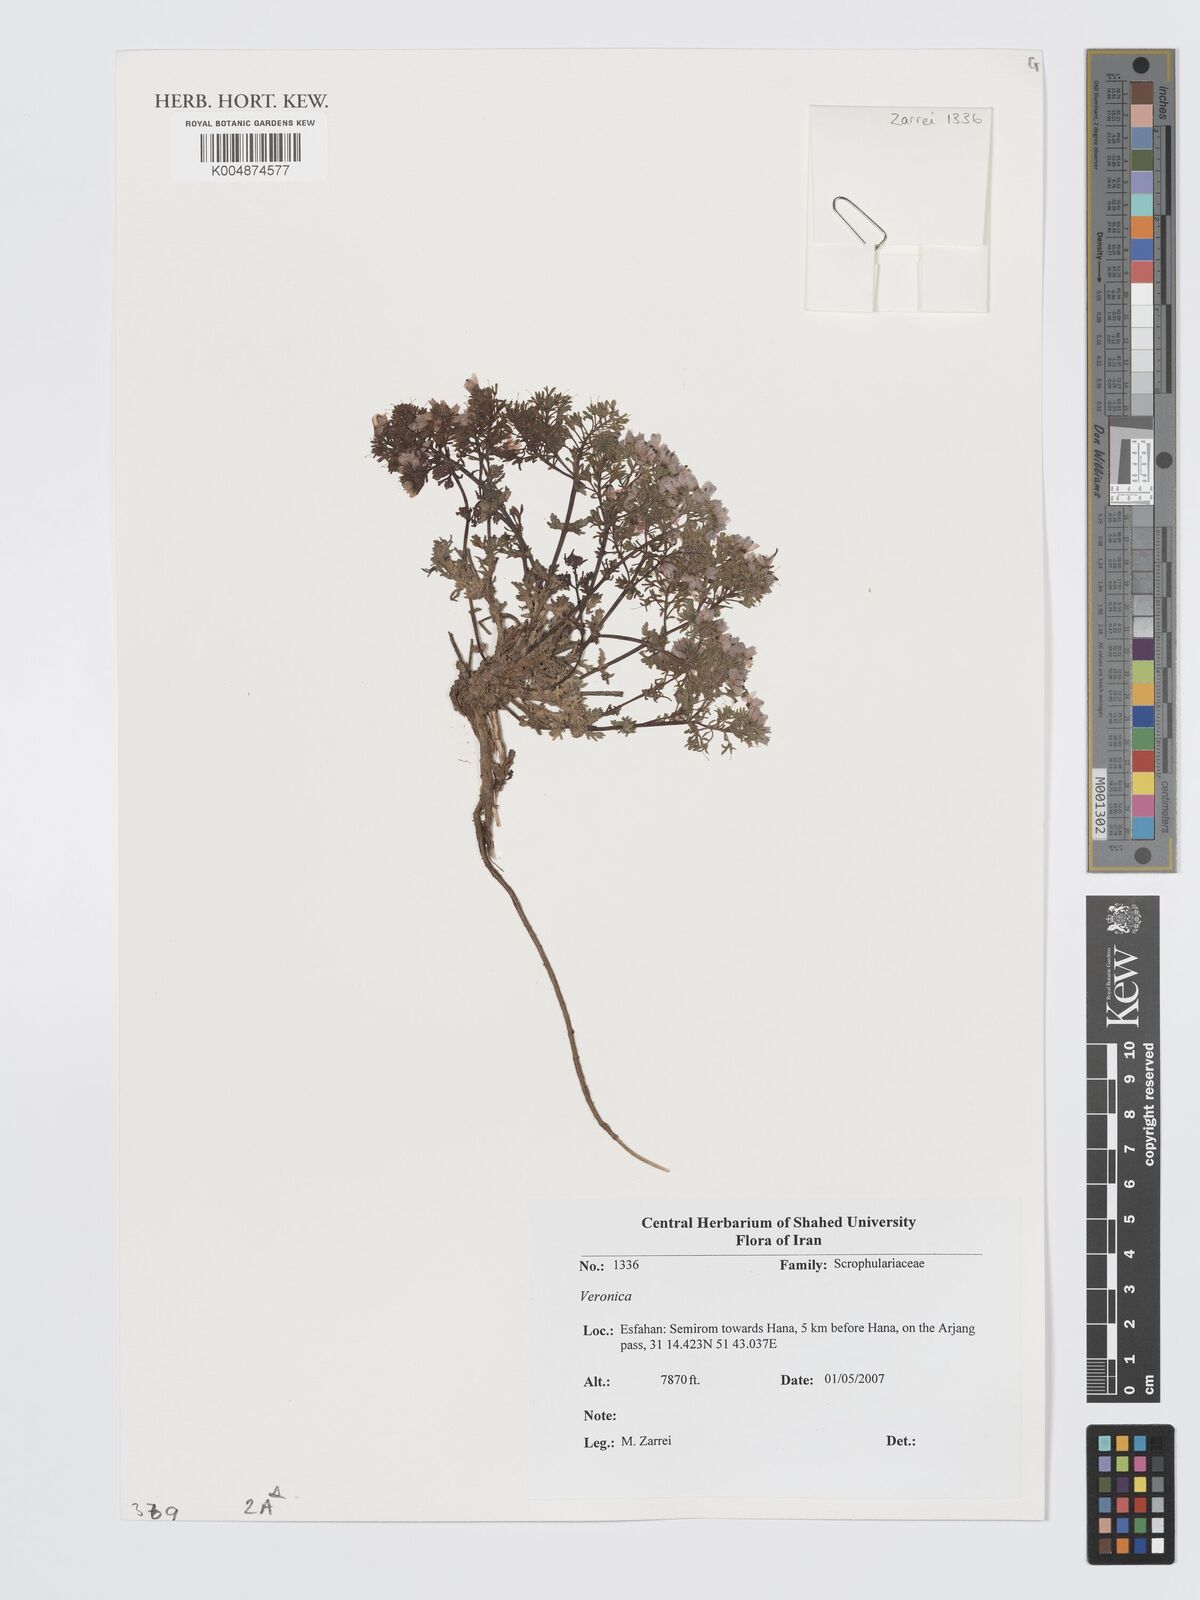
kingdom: Plantae
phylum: Tracheophyta
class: Magnoliopsida
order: Lamiales
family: Plantaginaceae
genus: Veronica
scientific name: Veronica
